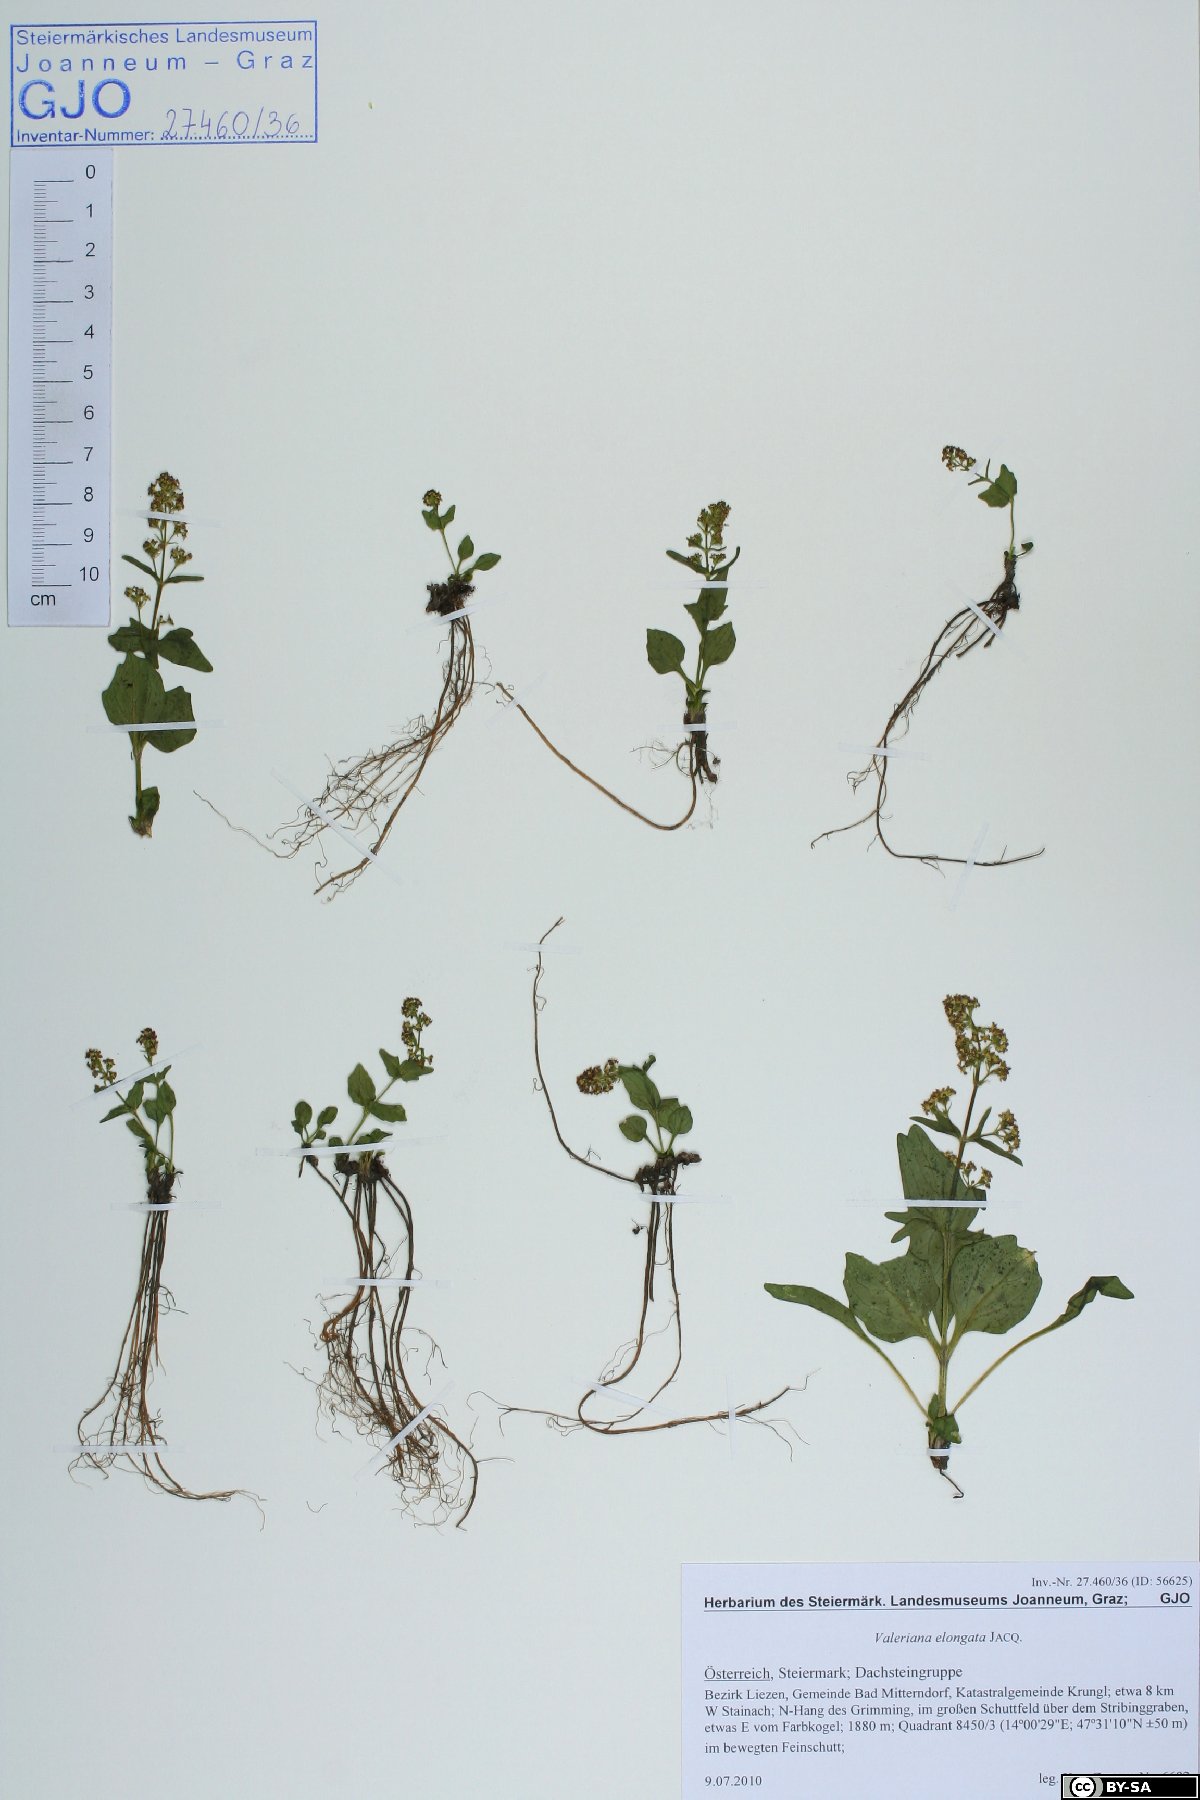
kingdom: Plantae
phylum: Tracheophyta
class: Magnoliopsida
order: Dipsacales
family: Caprifoliaceae
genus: Valeriana
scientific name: Valeriana elongata
